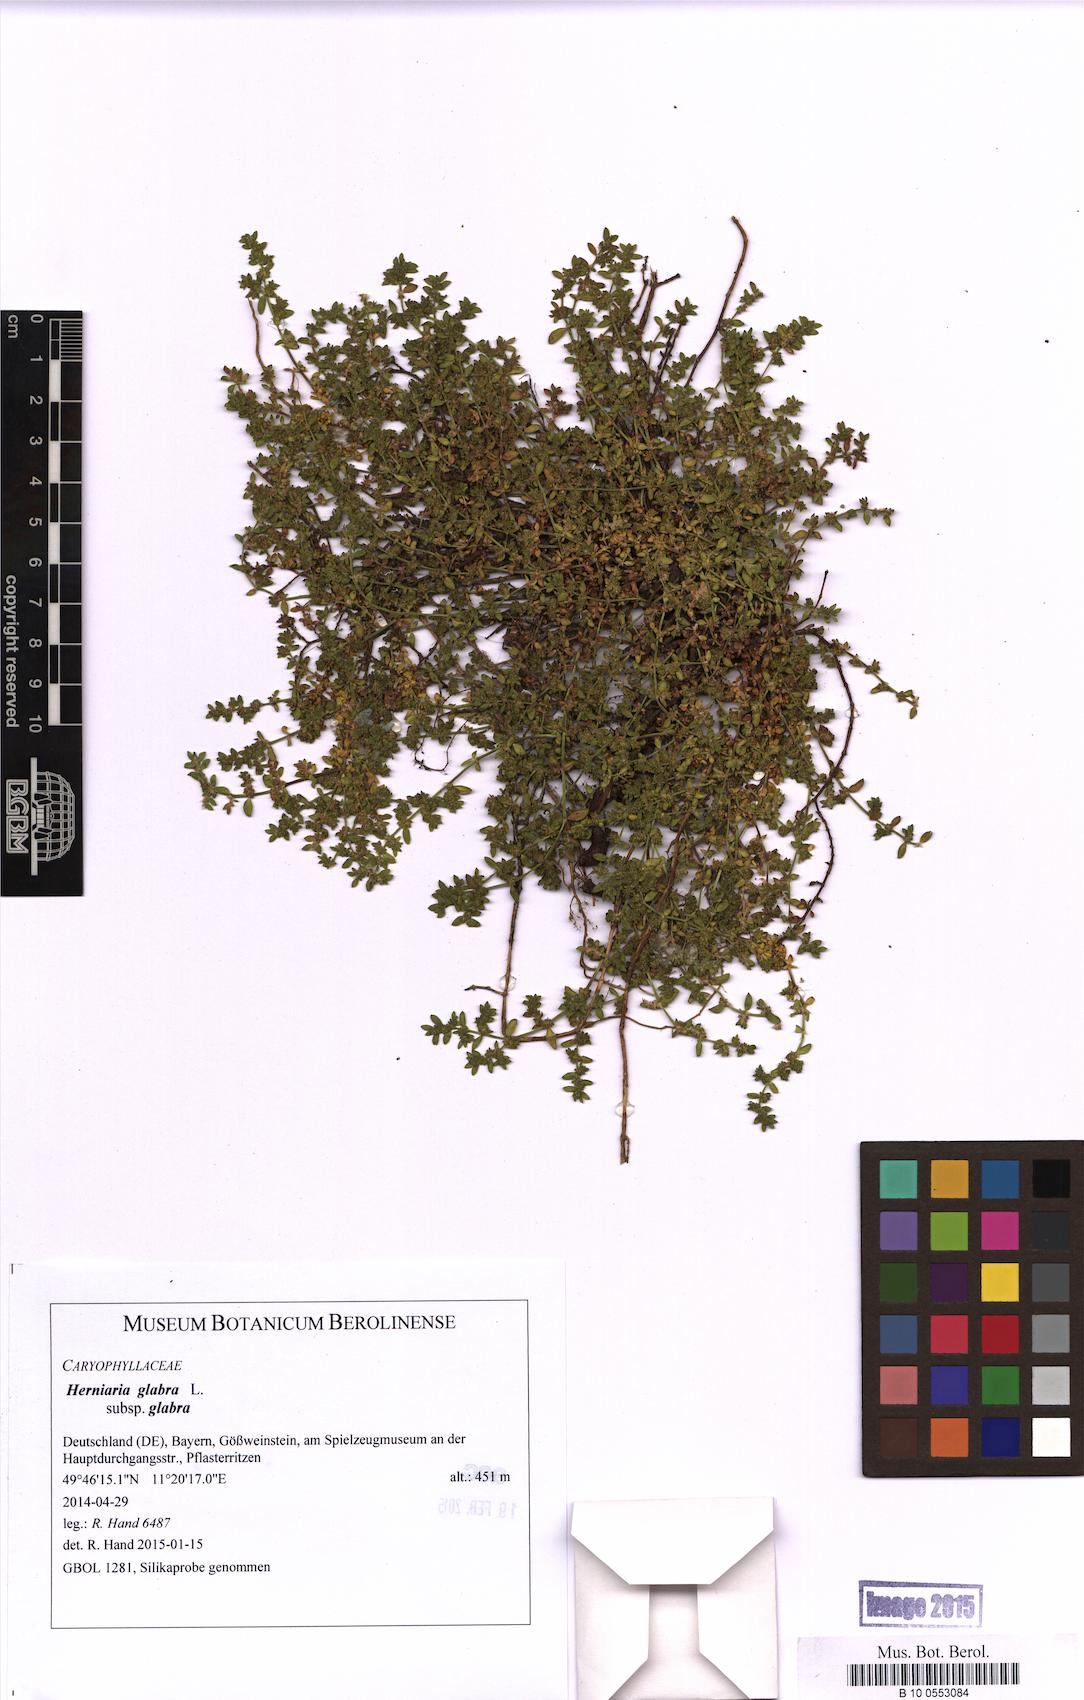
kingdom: Plantae
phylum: Tracheophyta
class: Magnoliopsida
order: Caryophyllales
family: Caryophyllaceae
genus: Herniaria
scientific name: Herniaria glabra
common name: Smooth rupturewort
